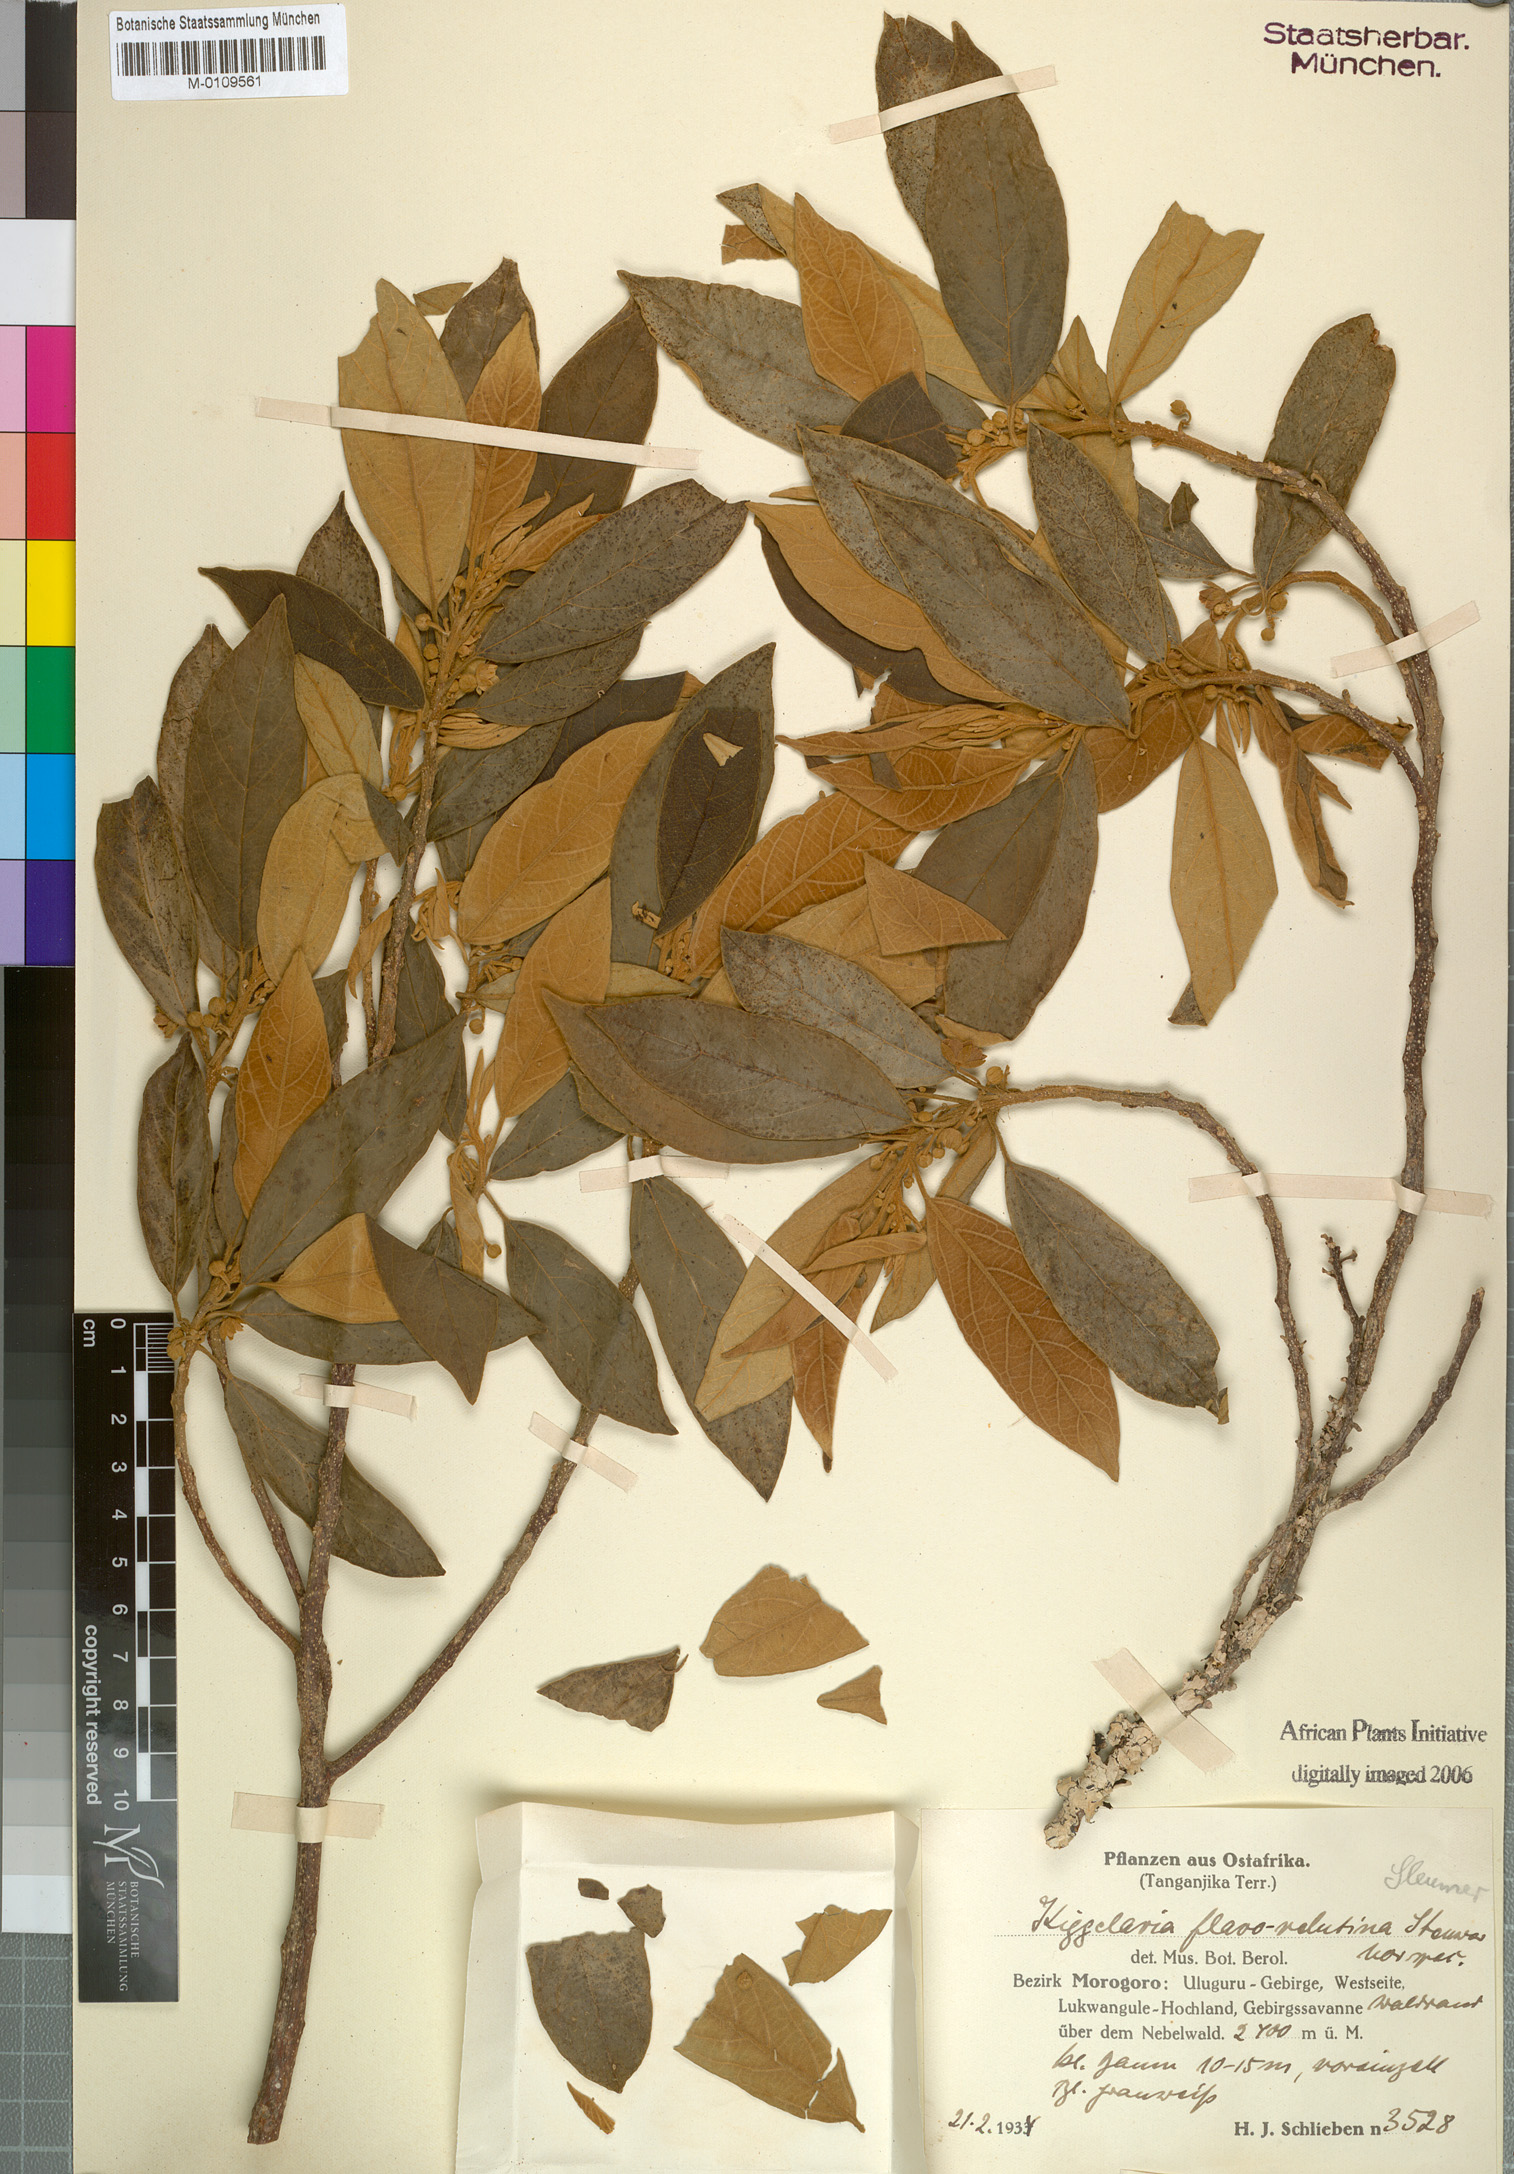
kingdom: Plantae
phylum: Tracheophyta
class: Magnoliopsida
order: Malpighiales
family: Achariaceae
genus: Kiggelaria
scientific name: Kiggelaria africana
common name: Wild peach
